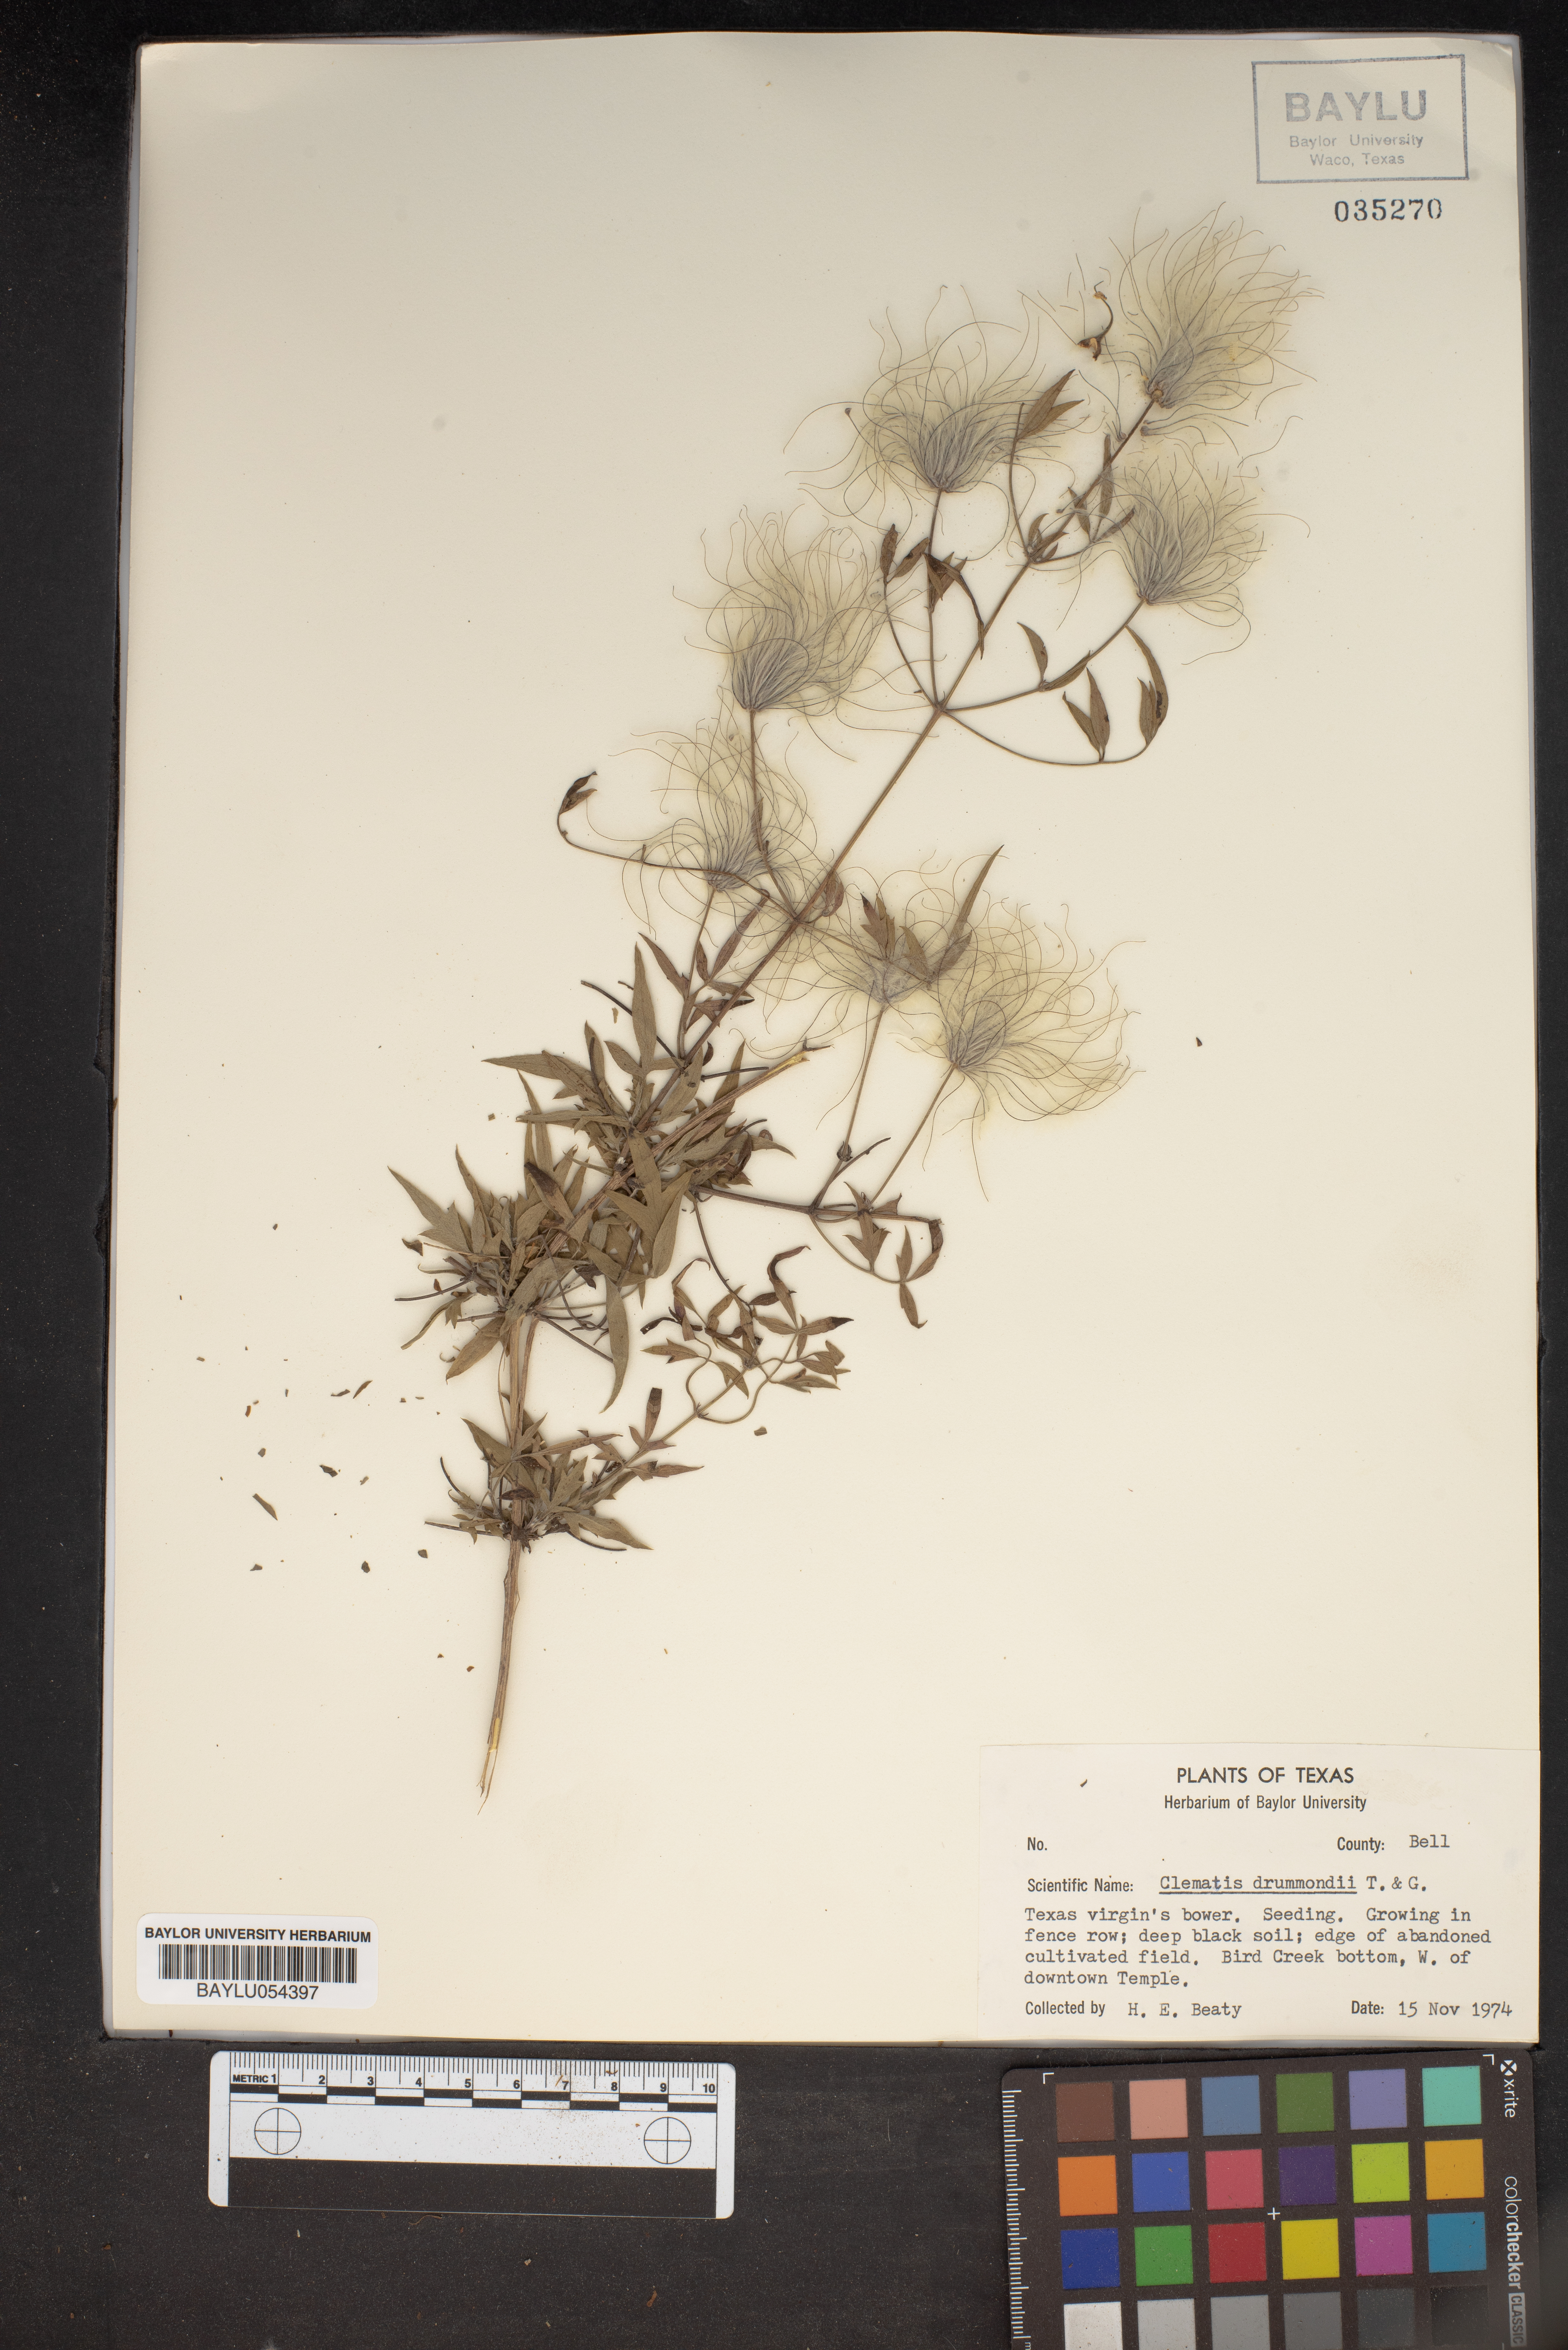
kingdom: Plantae
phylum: Tracheophyta
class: Magnoliopsida
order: Ranunculales
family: Ranunculaceae
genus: Clematis
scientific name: Clematis drummondii
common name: Texas virgin's bower
